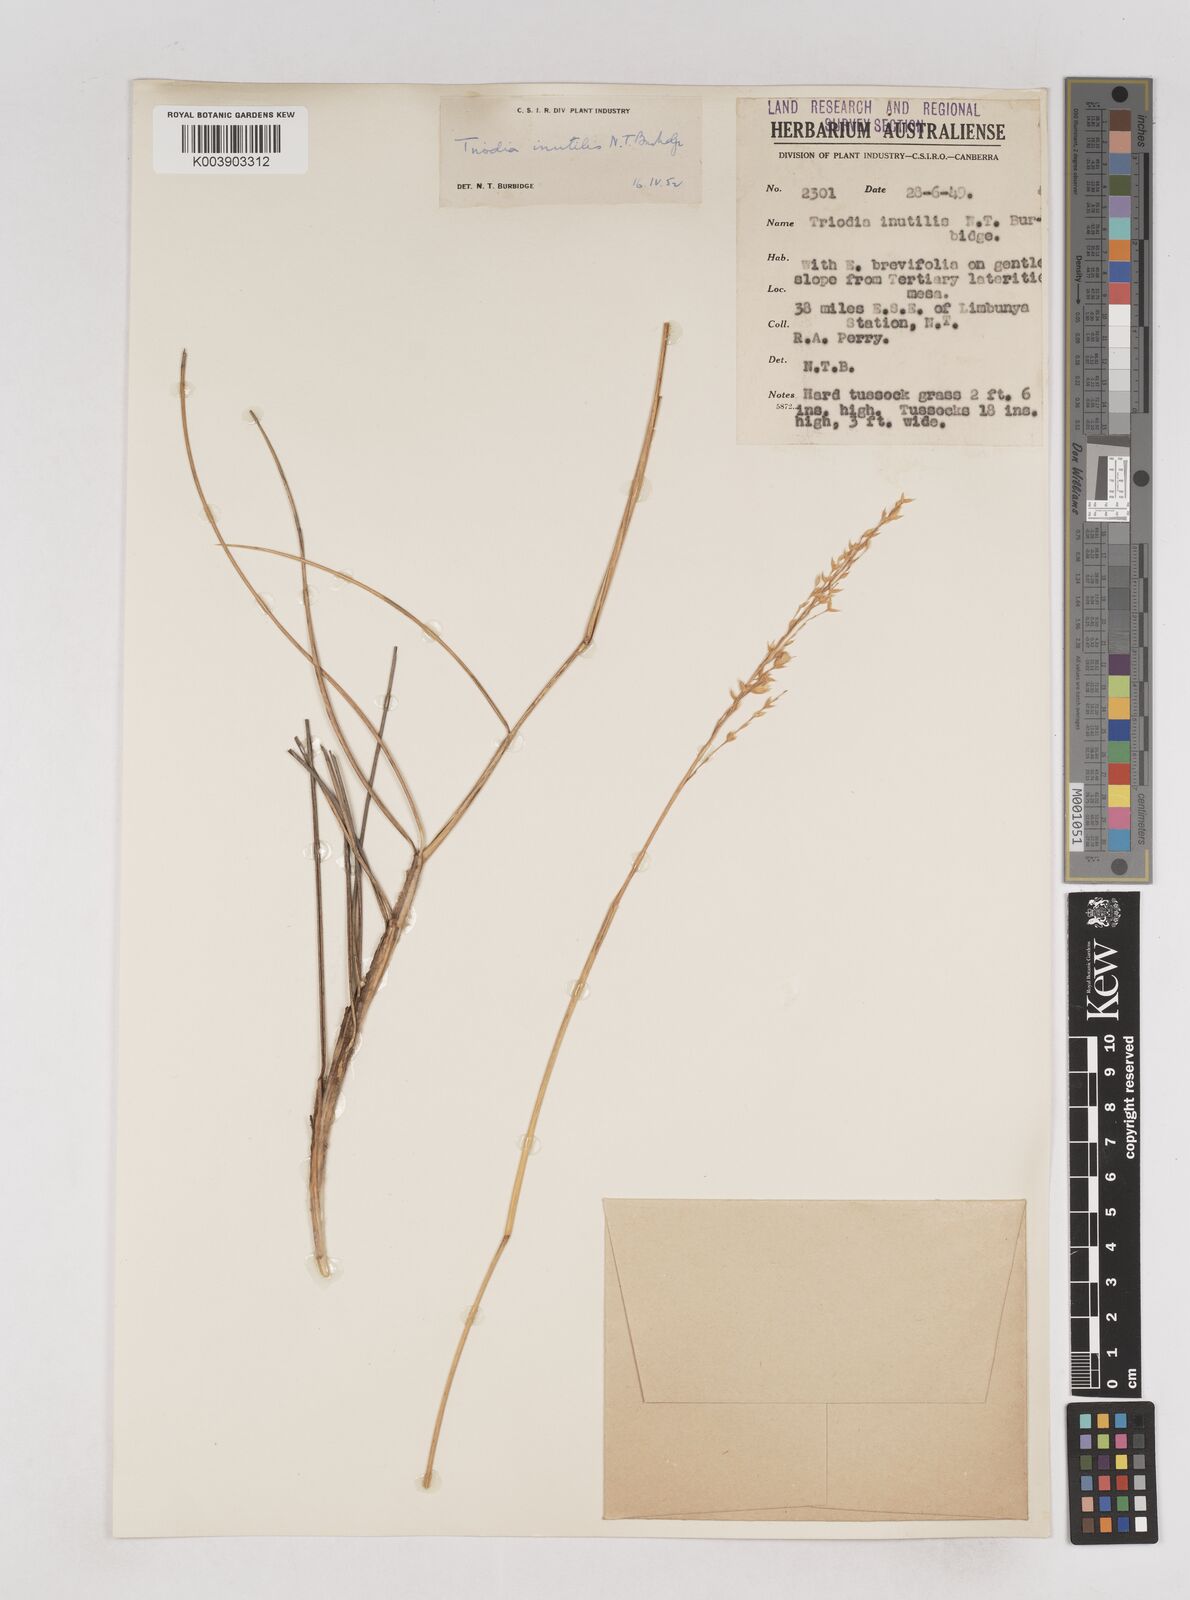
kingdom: Plantae
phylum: Tracheophyta
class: Liliopsida
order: Poales
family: Poaceae
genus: Triodia
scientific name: Triodia inutilis
